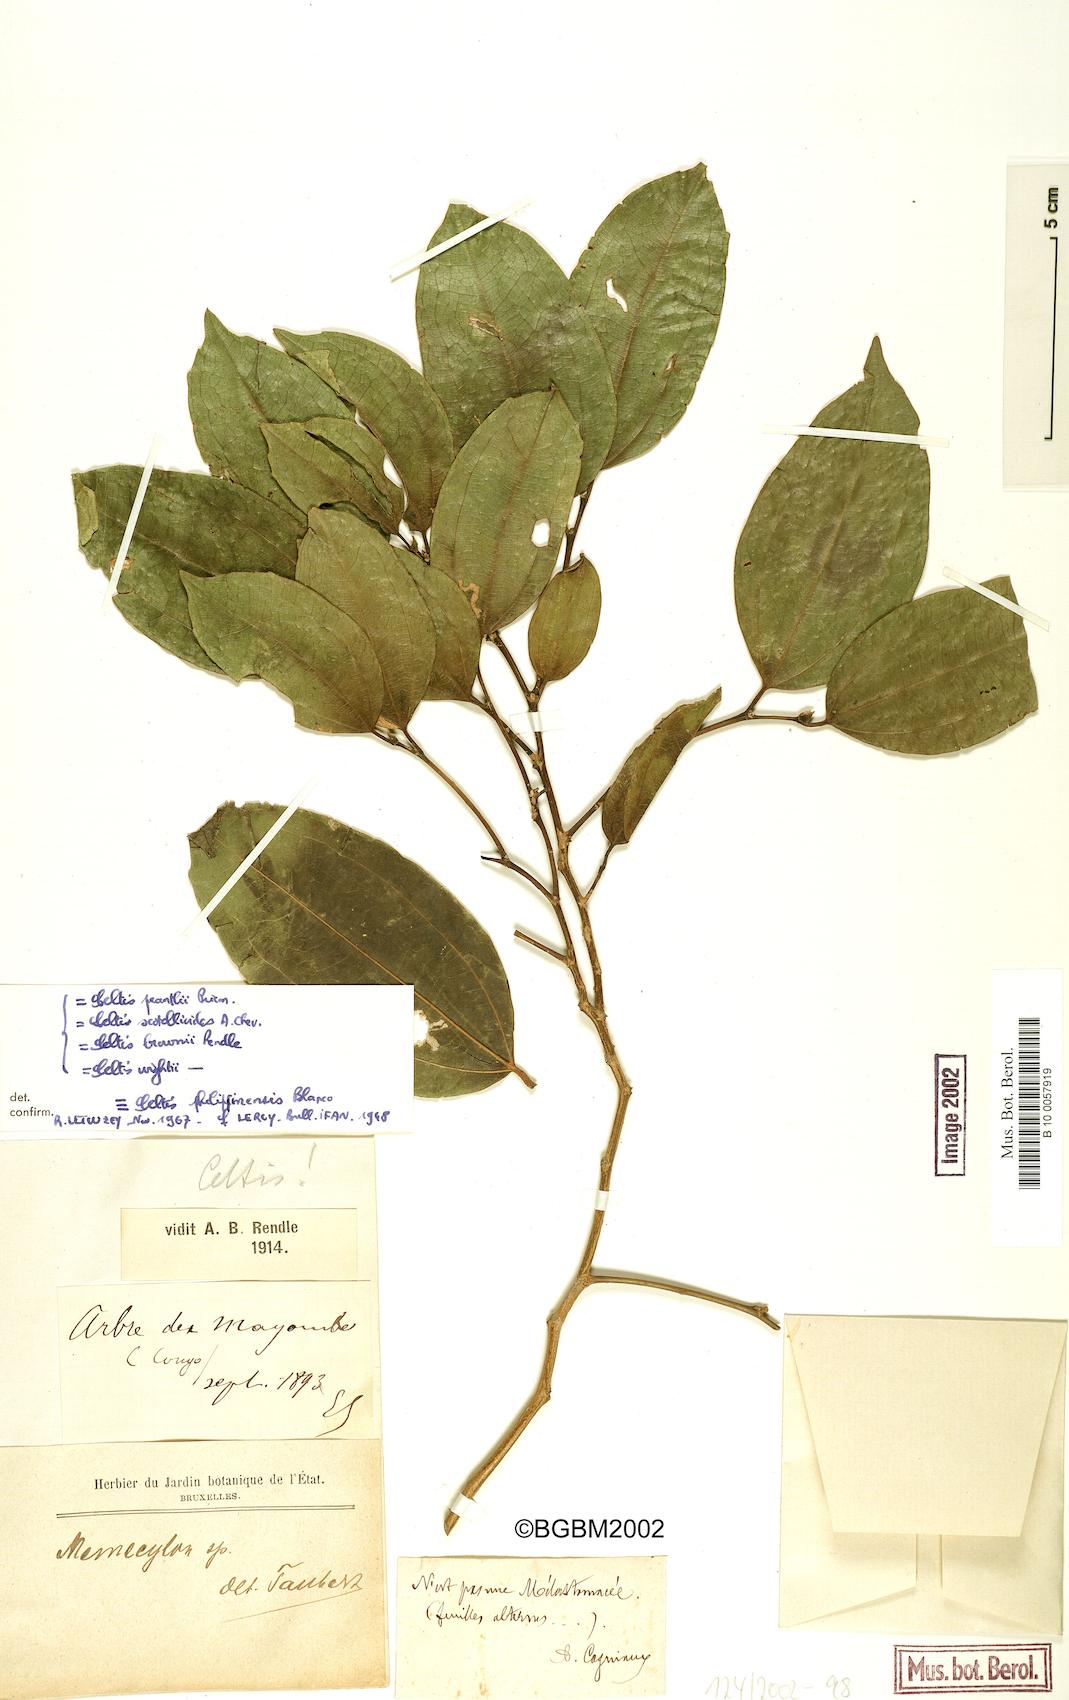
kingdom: Plantae
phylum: Tracheophyta
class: Magnoliopsida
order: Rosales
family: Cannabaceae
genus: Celtis
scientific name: Celtis philippensis
